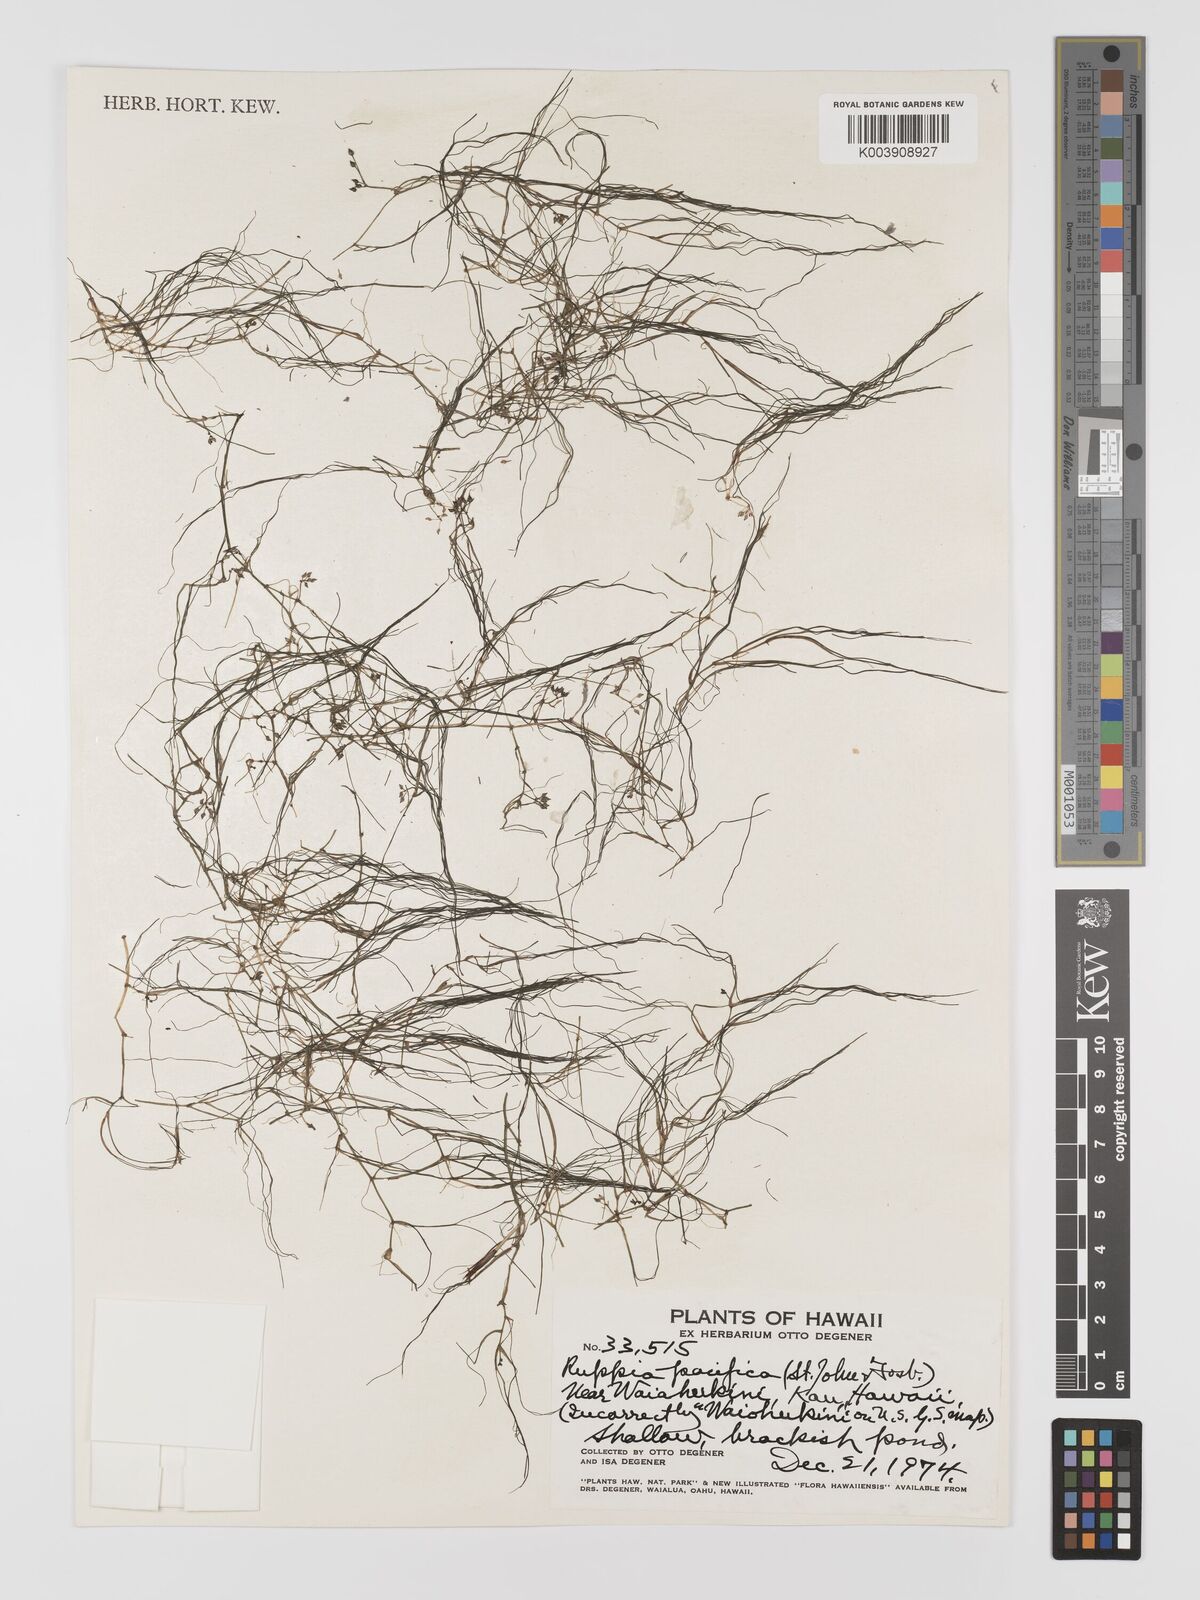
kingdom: Plantae
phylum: Tracheophyta
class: Liliopsida
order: Alismatales
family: Ruppiaceae
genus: Ruppia
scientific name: Ruppia maritima
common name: Beaked tasselweed
